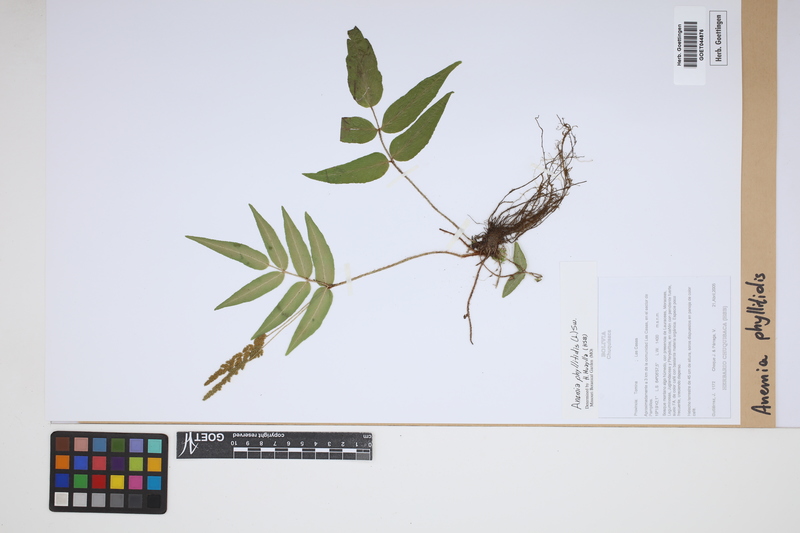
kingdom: Plantae
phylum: Tracheophyta
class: Polypodiopsida
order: Schizaeales
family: Anemiaceae
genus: Anemia
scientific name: Anemia phyllitidis
